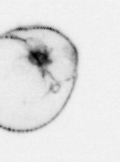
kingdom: Chromista
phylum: Myzozoa
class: Dinophyceae
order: Noctilucales
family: Noctilucaceae
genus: Noctiluca
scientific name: Noctiluca scintillans
